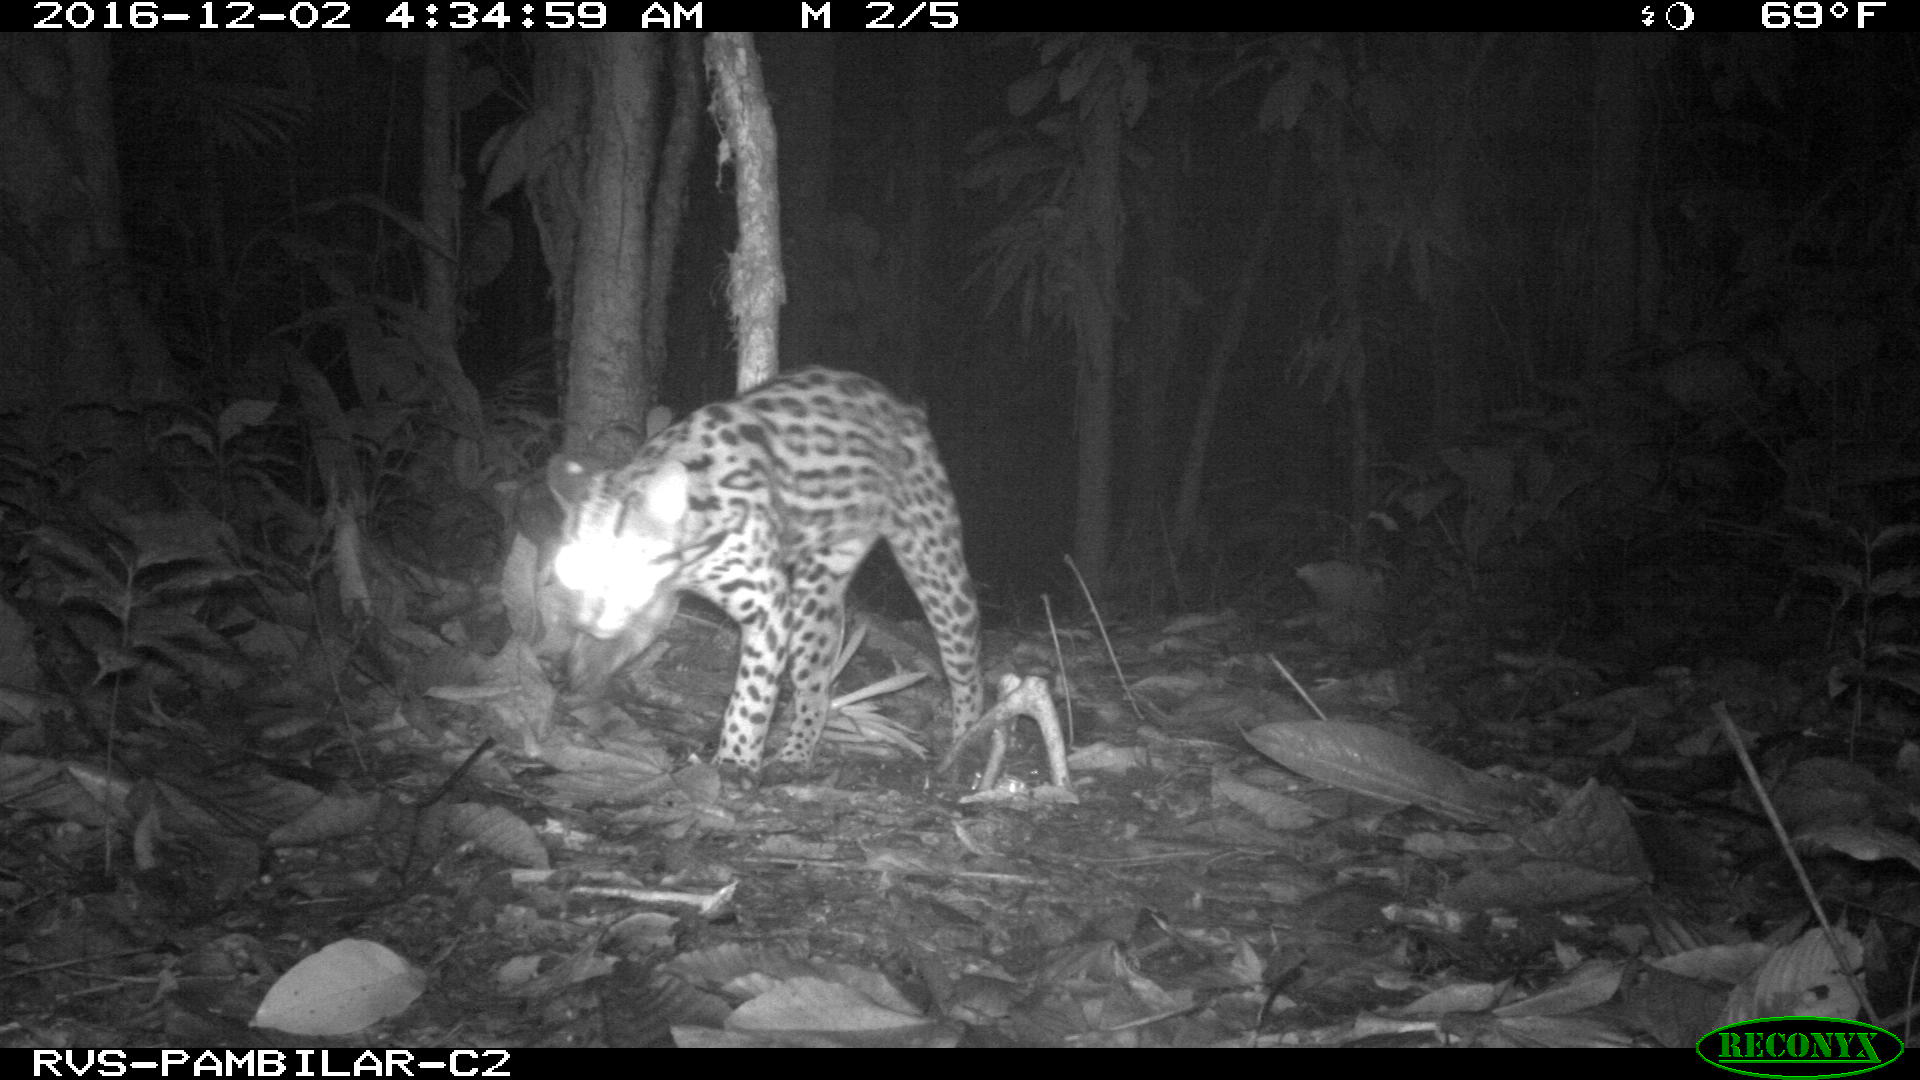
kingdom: Animalia
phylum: Chordata
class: Mammalia
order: Carnivora
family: Felidae
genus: Leopardus
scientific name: Leopardus pardalis
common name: Ocelot
